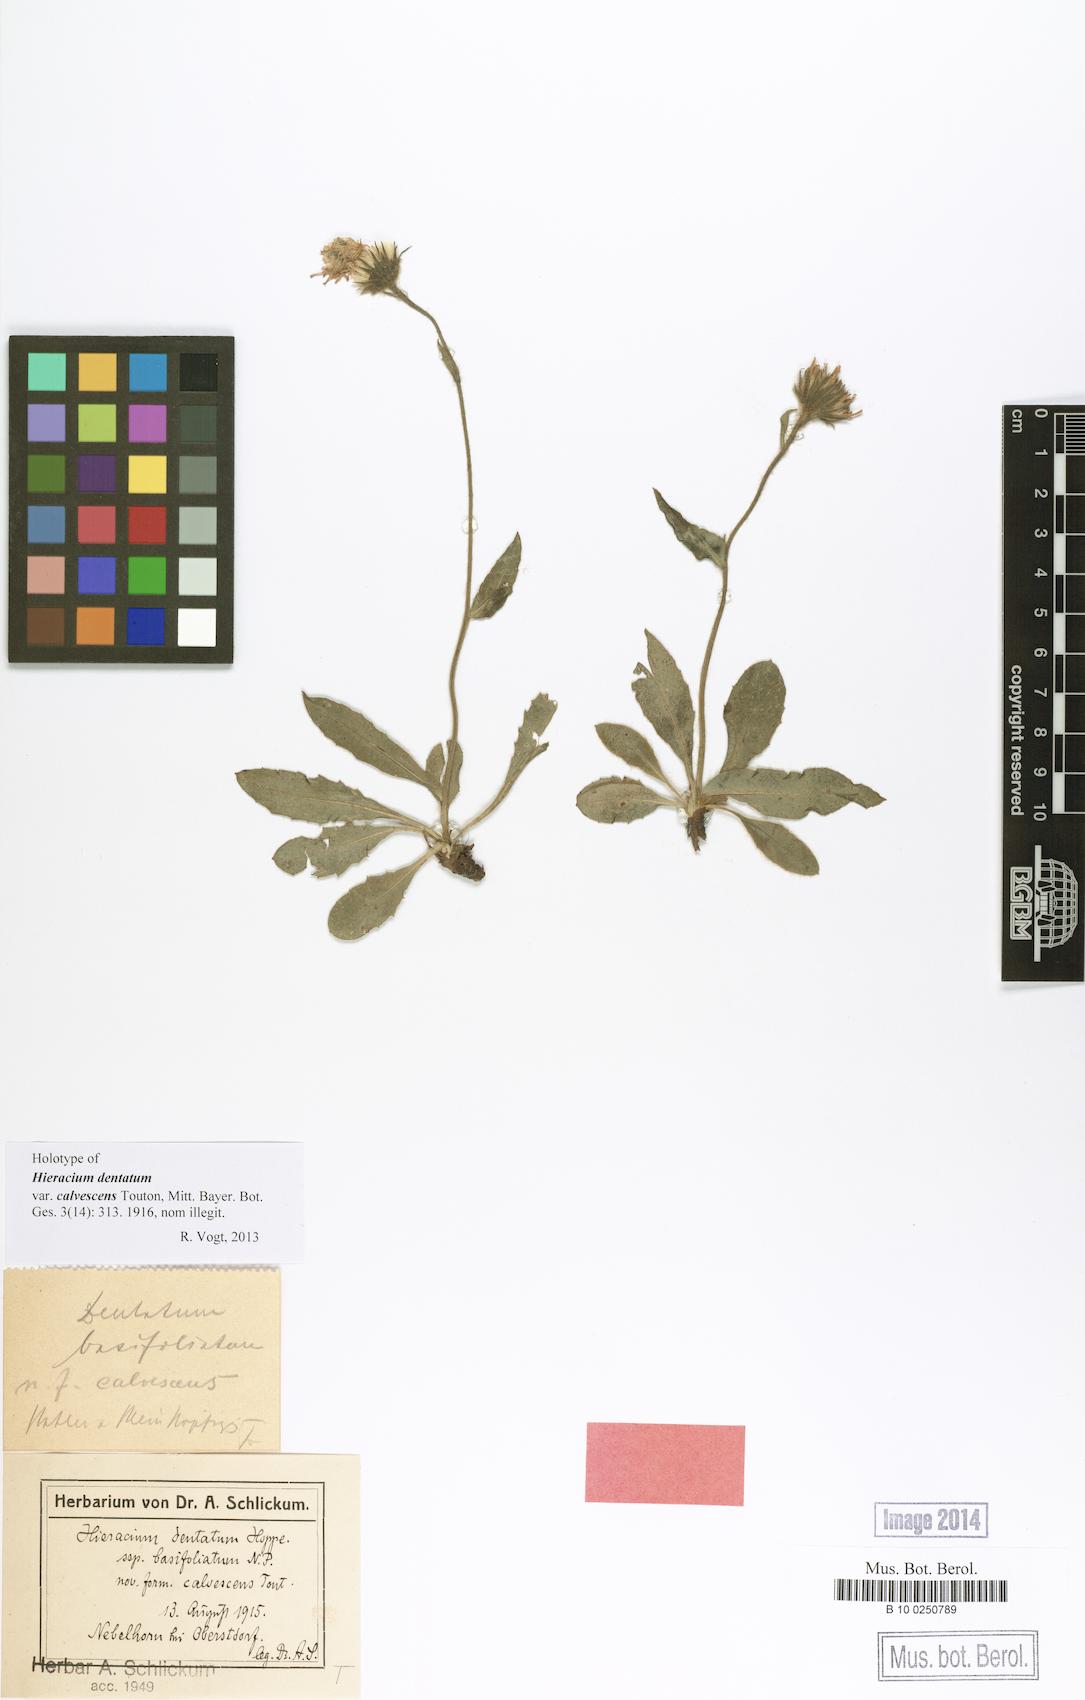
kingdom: Plantae
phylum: Tracheophyta
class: Magnoliopsida
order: Asterales
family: Asteraceae
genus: Hieracium
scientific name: Hieracium dentatum
